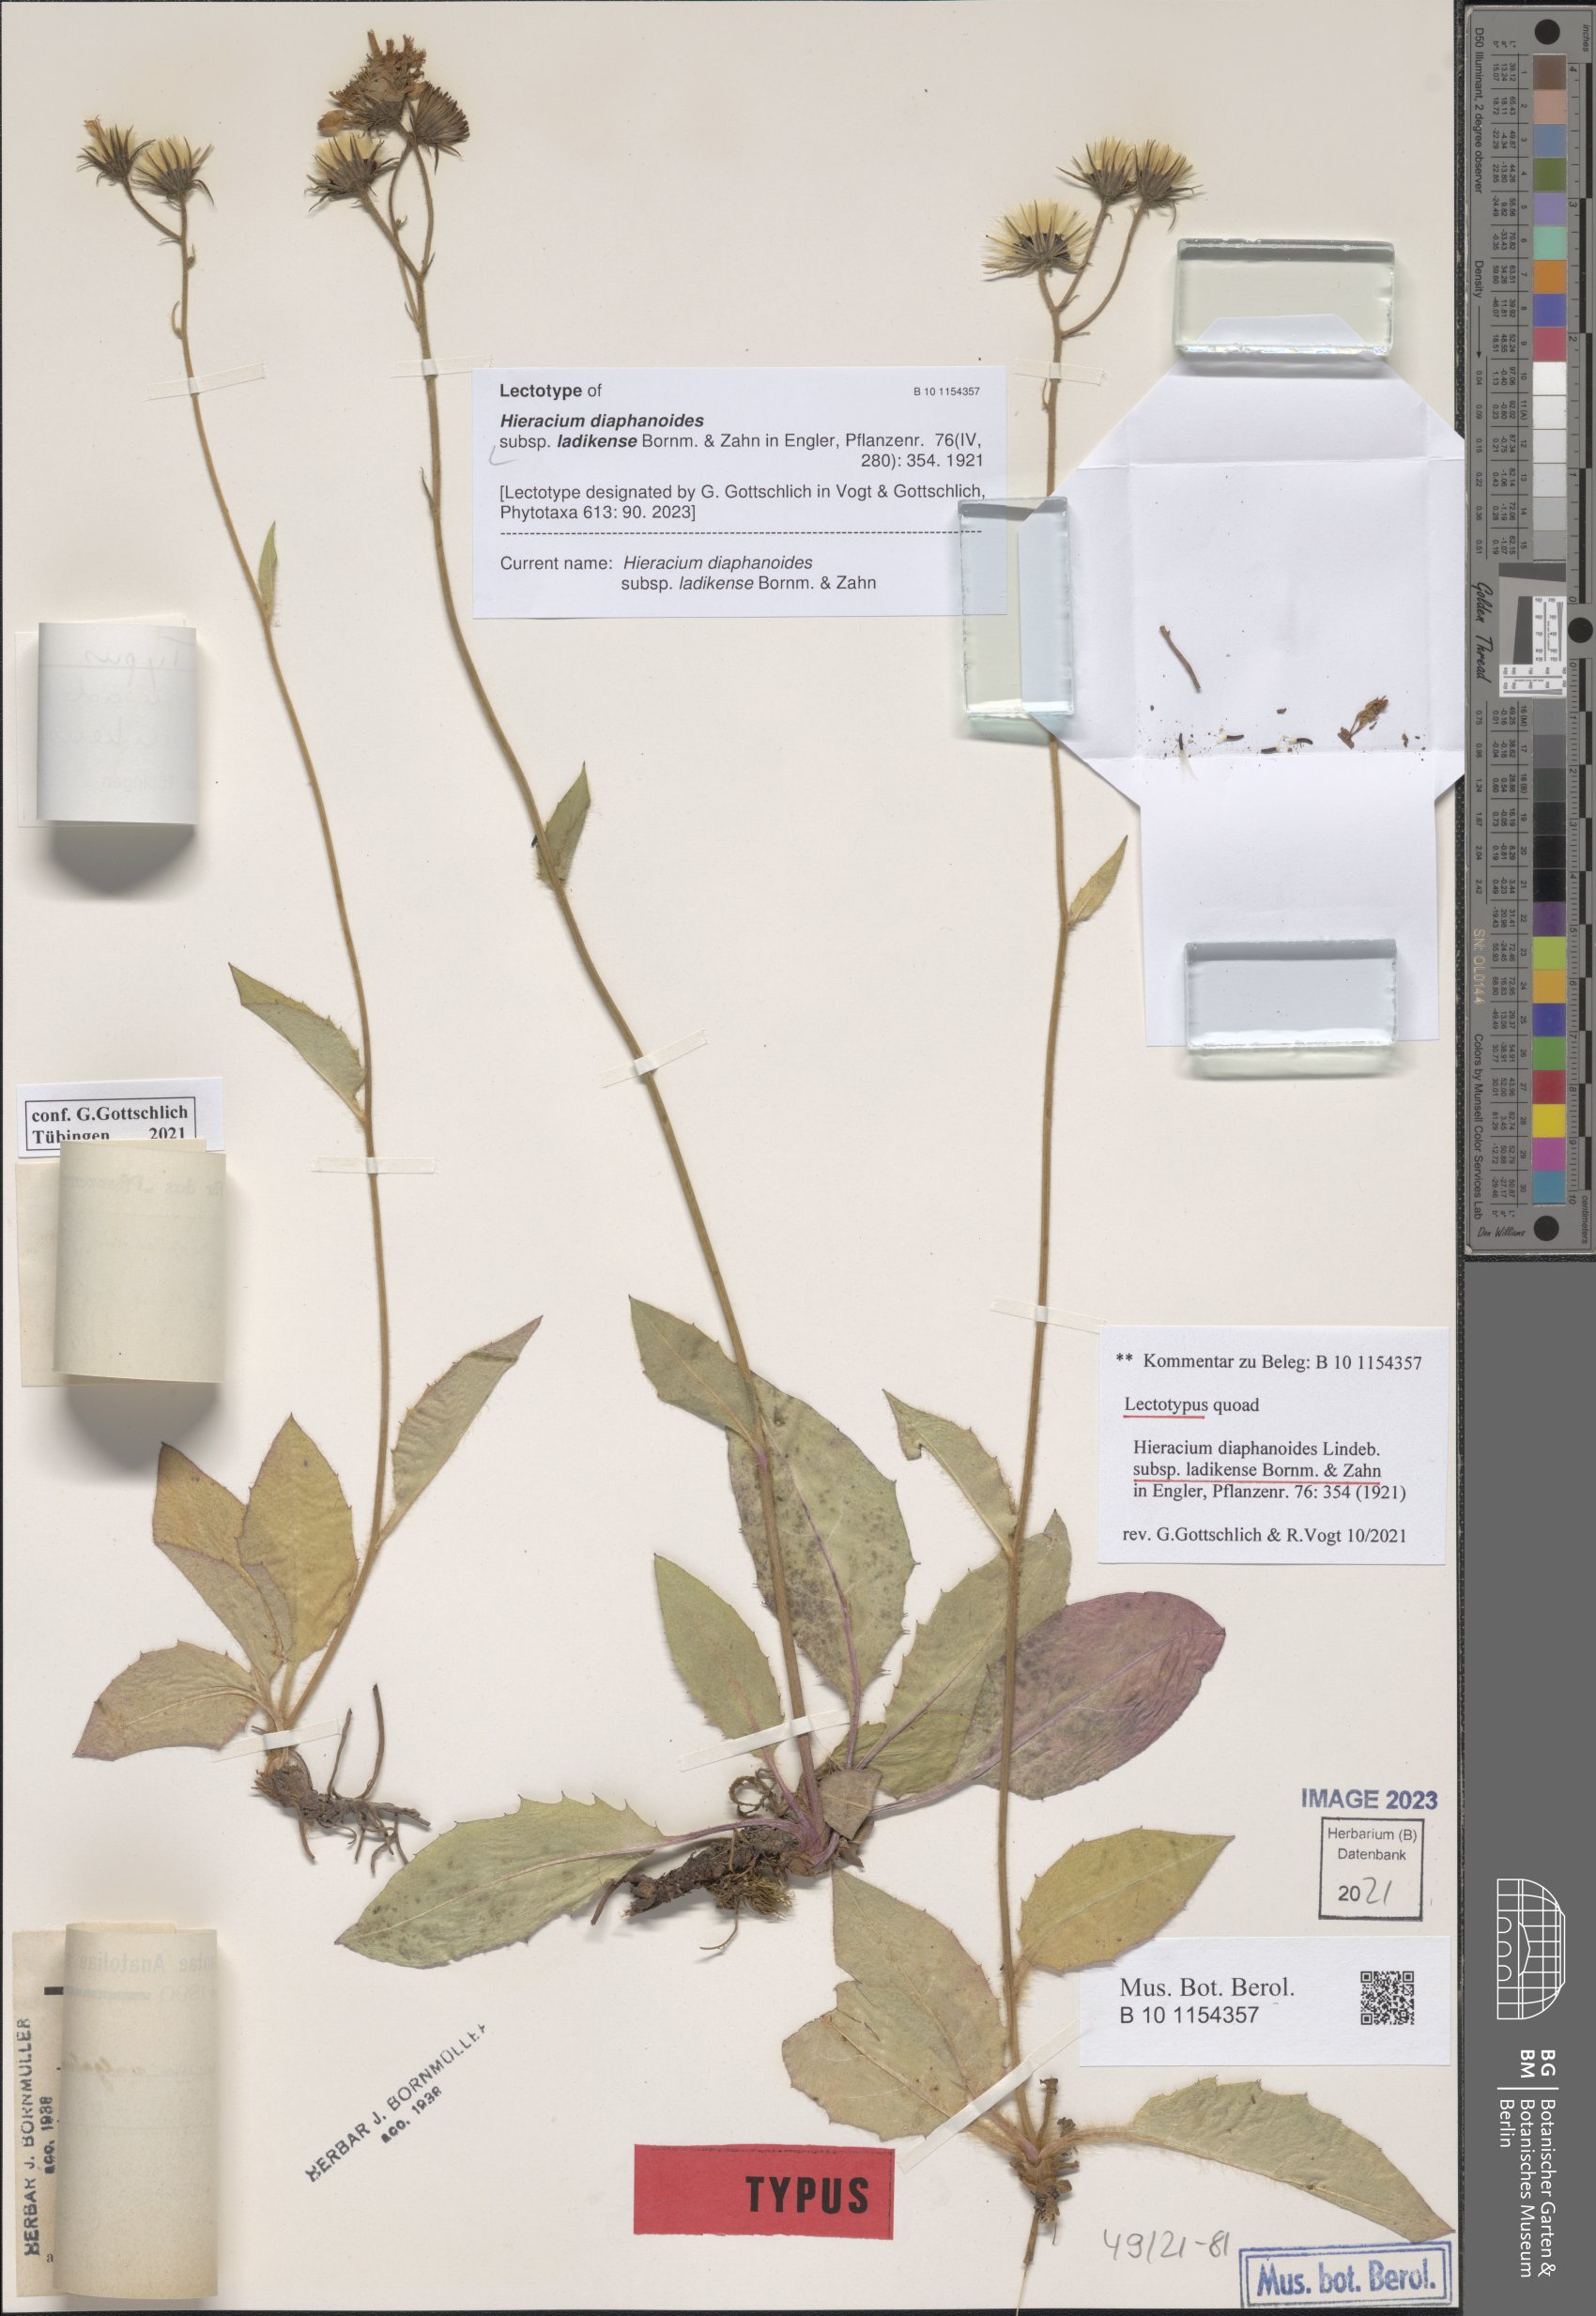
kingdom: Plantae
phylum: Tracheophyta
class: Magnoliopsida
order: Asterales
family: Asteraceae
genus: Hieracium
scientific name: Hieracium diaphanoides
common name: Fine-bracted hawkweed
